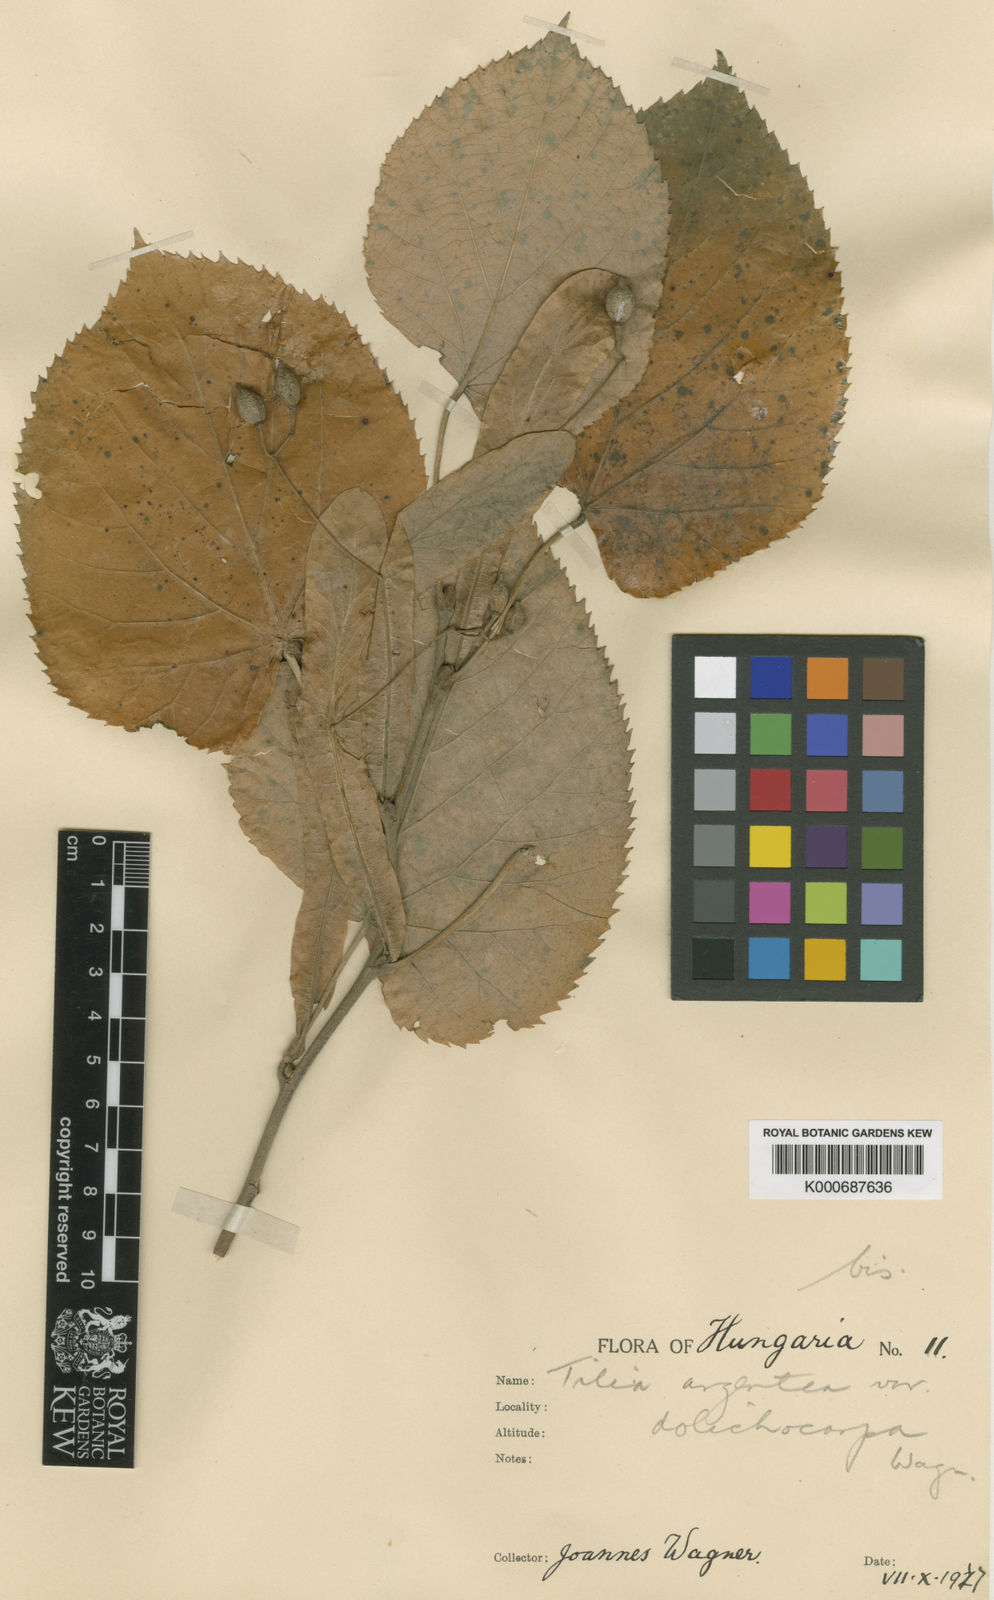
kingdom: Plantae
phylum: Tracheophyta
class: Magnoliopsida
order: Malvales
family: Malvaceae
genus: Tilia
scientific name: Tilia tomentosa
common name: Silver lime
